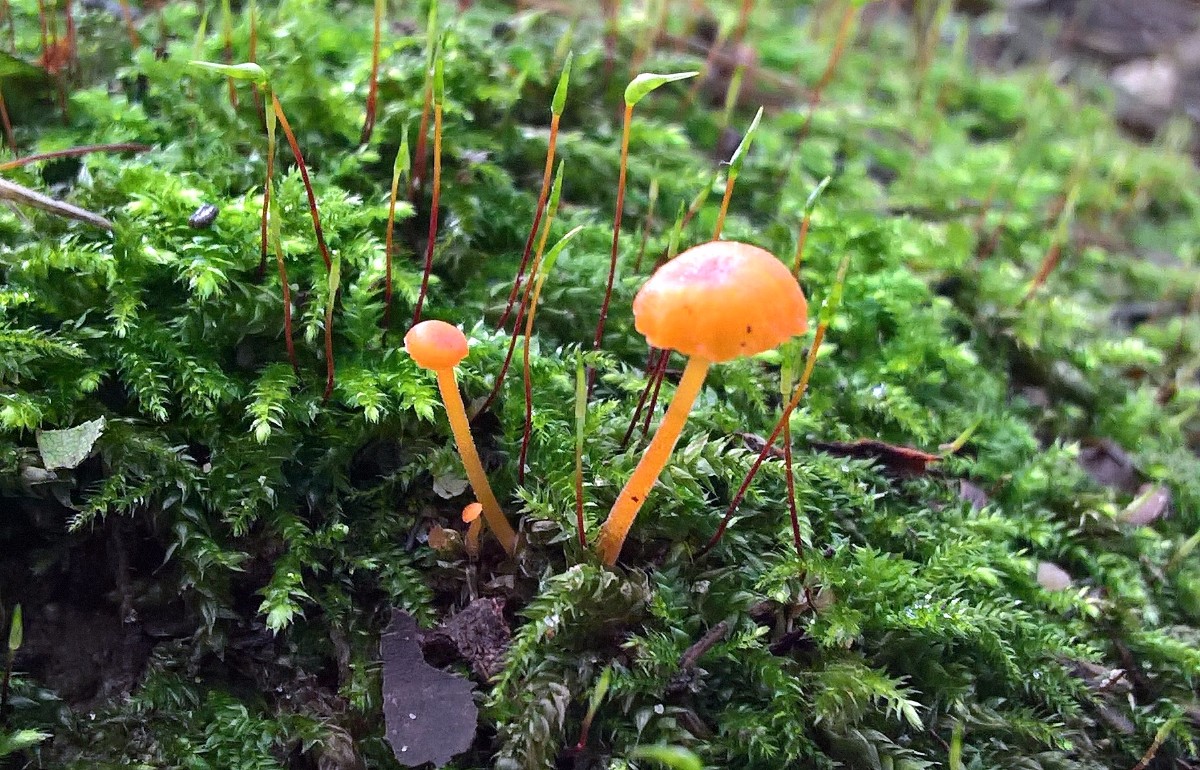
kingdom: Fungi
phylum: Basidiomycota
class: Agaricomycetes
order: Hymenochaetales
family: Rickenellaceae
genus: Rickenella
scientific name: Rickenella fibula
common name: orange mosnavlehat
